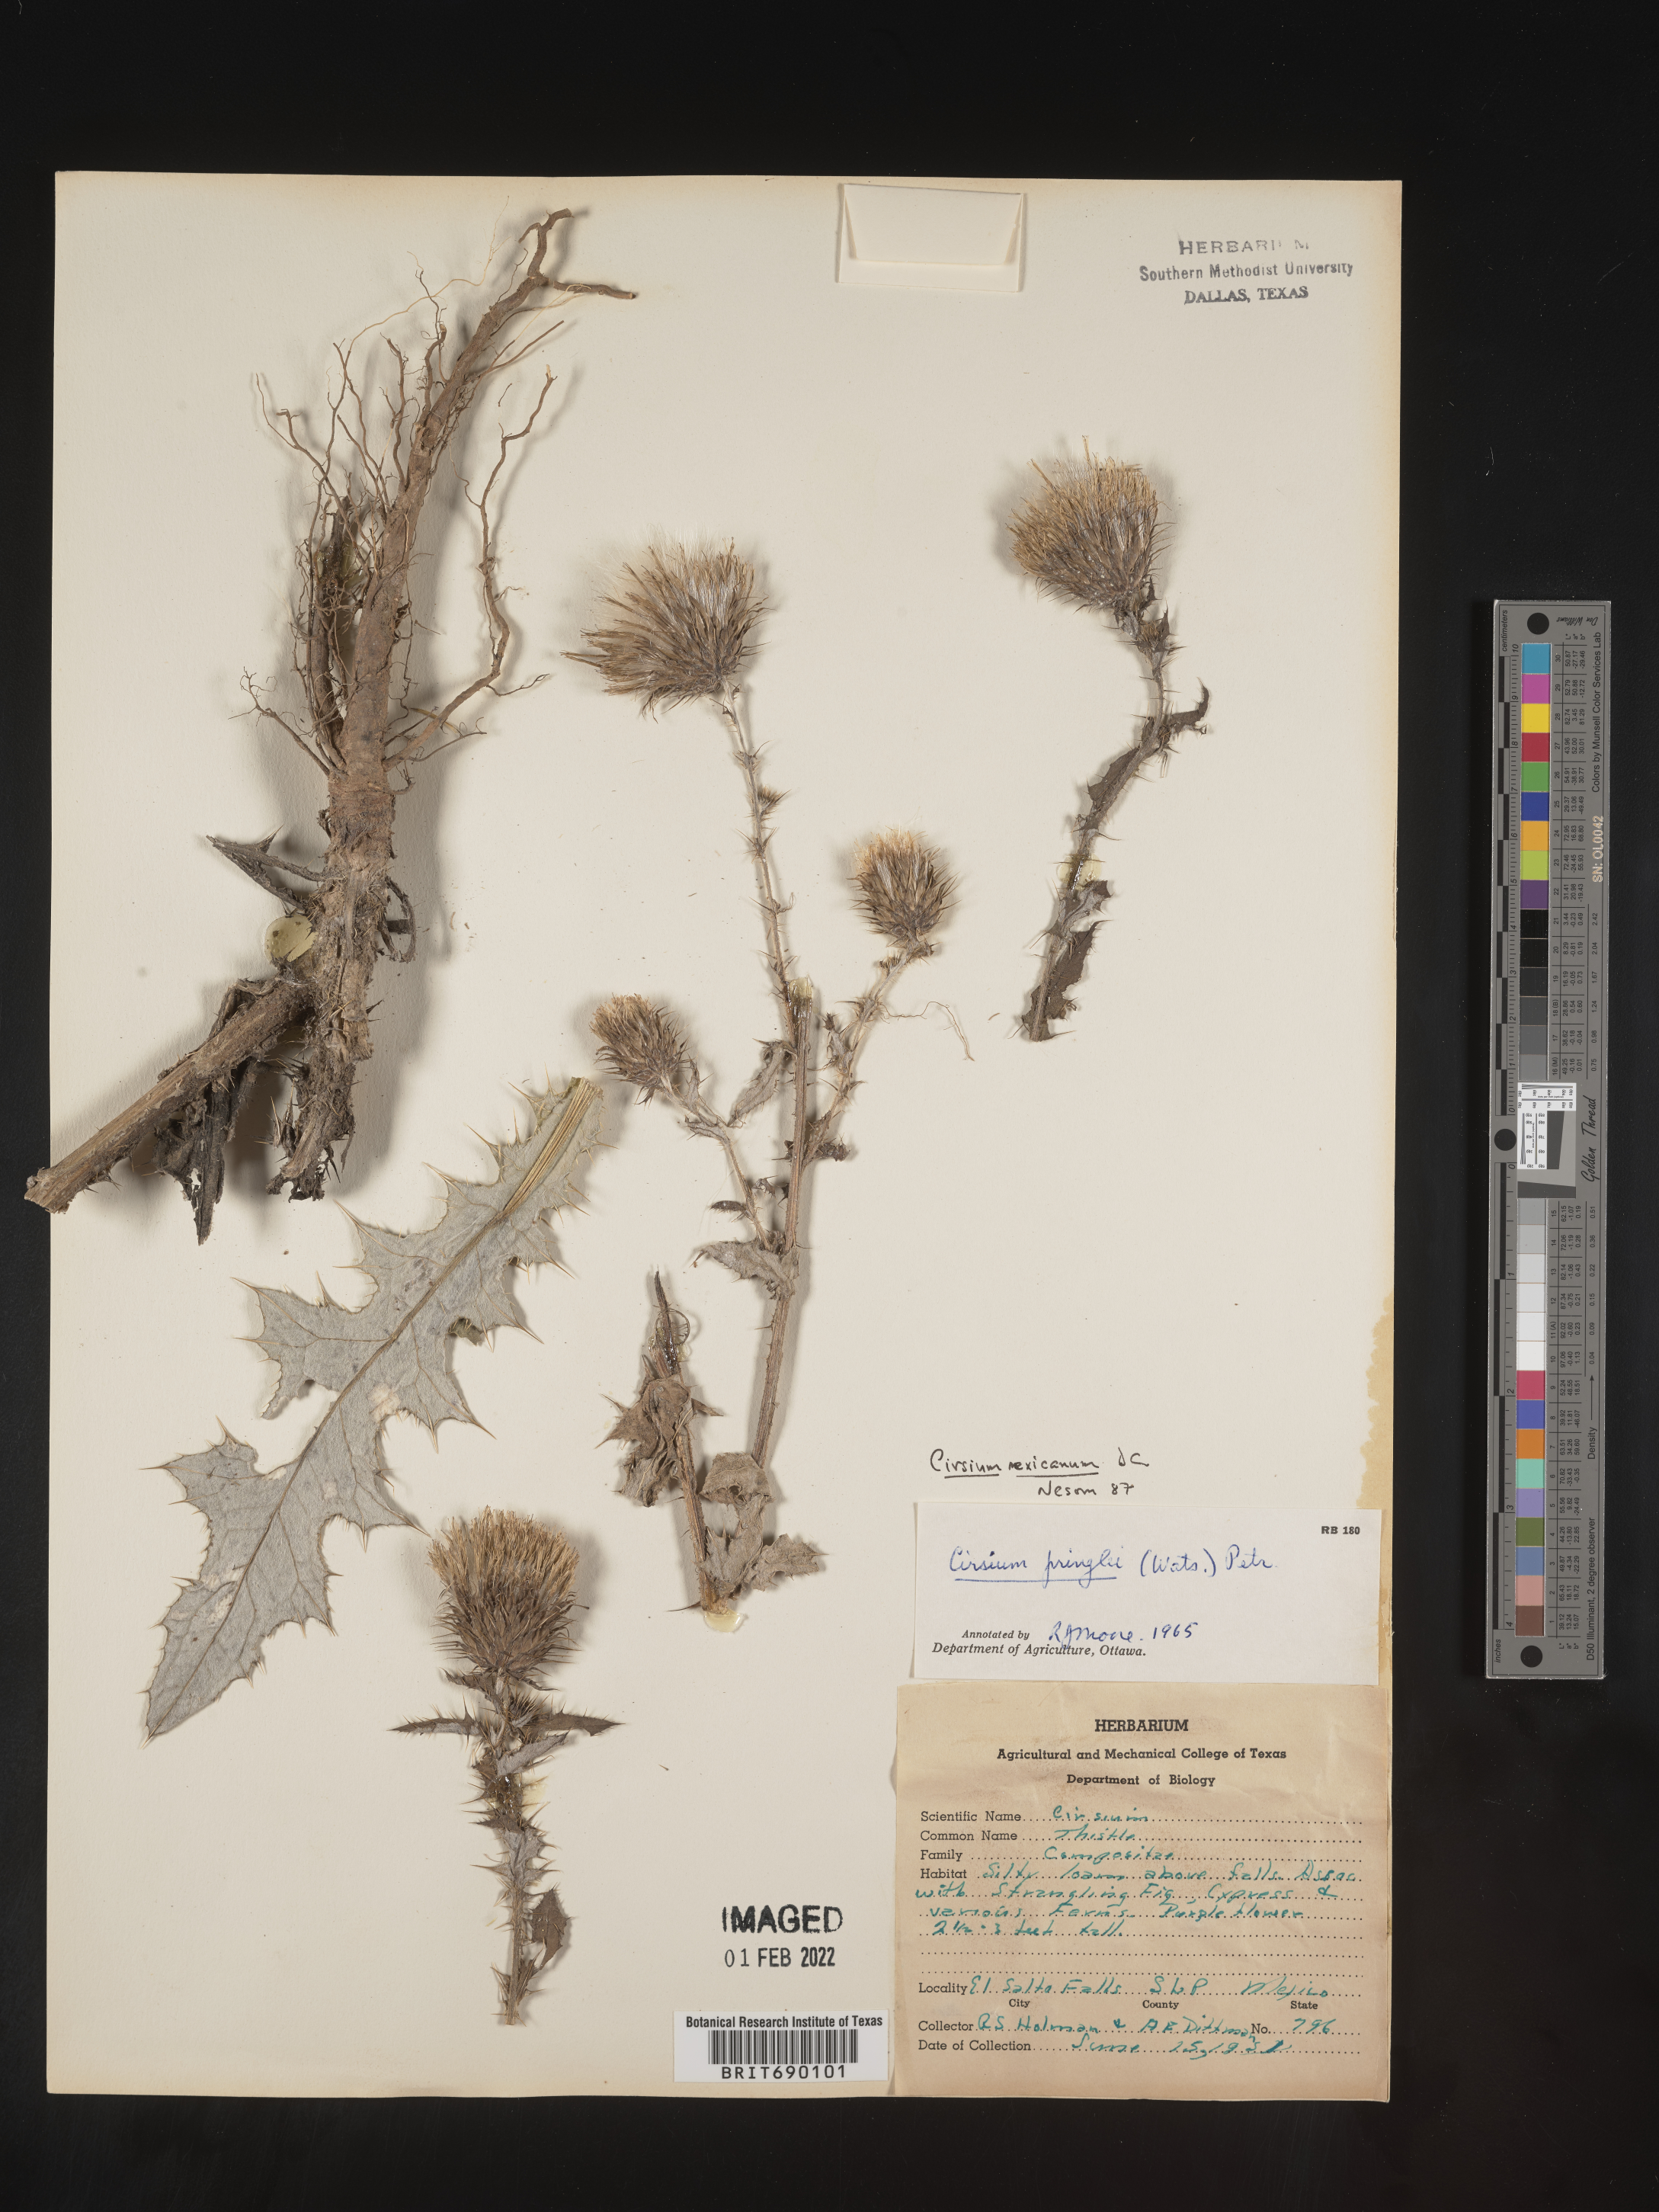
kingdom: Plantae
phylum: Tracheophyta
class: Magnoliopsida
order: Asterales
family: Asteraceae
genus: Cirsium
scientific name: Cirsium
